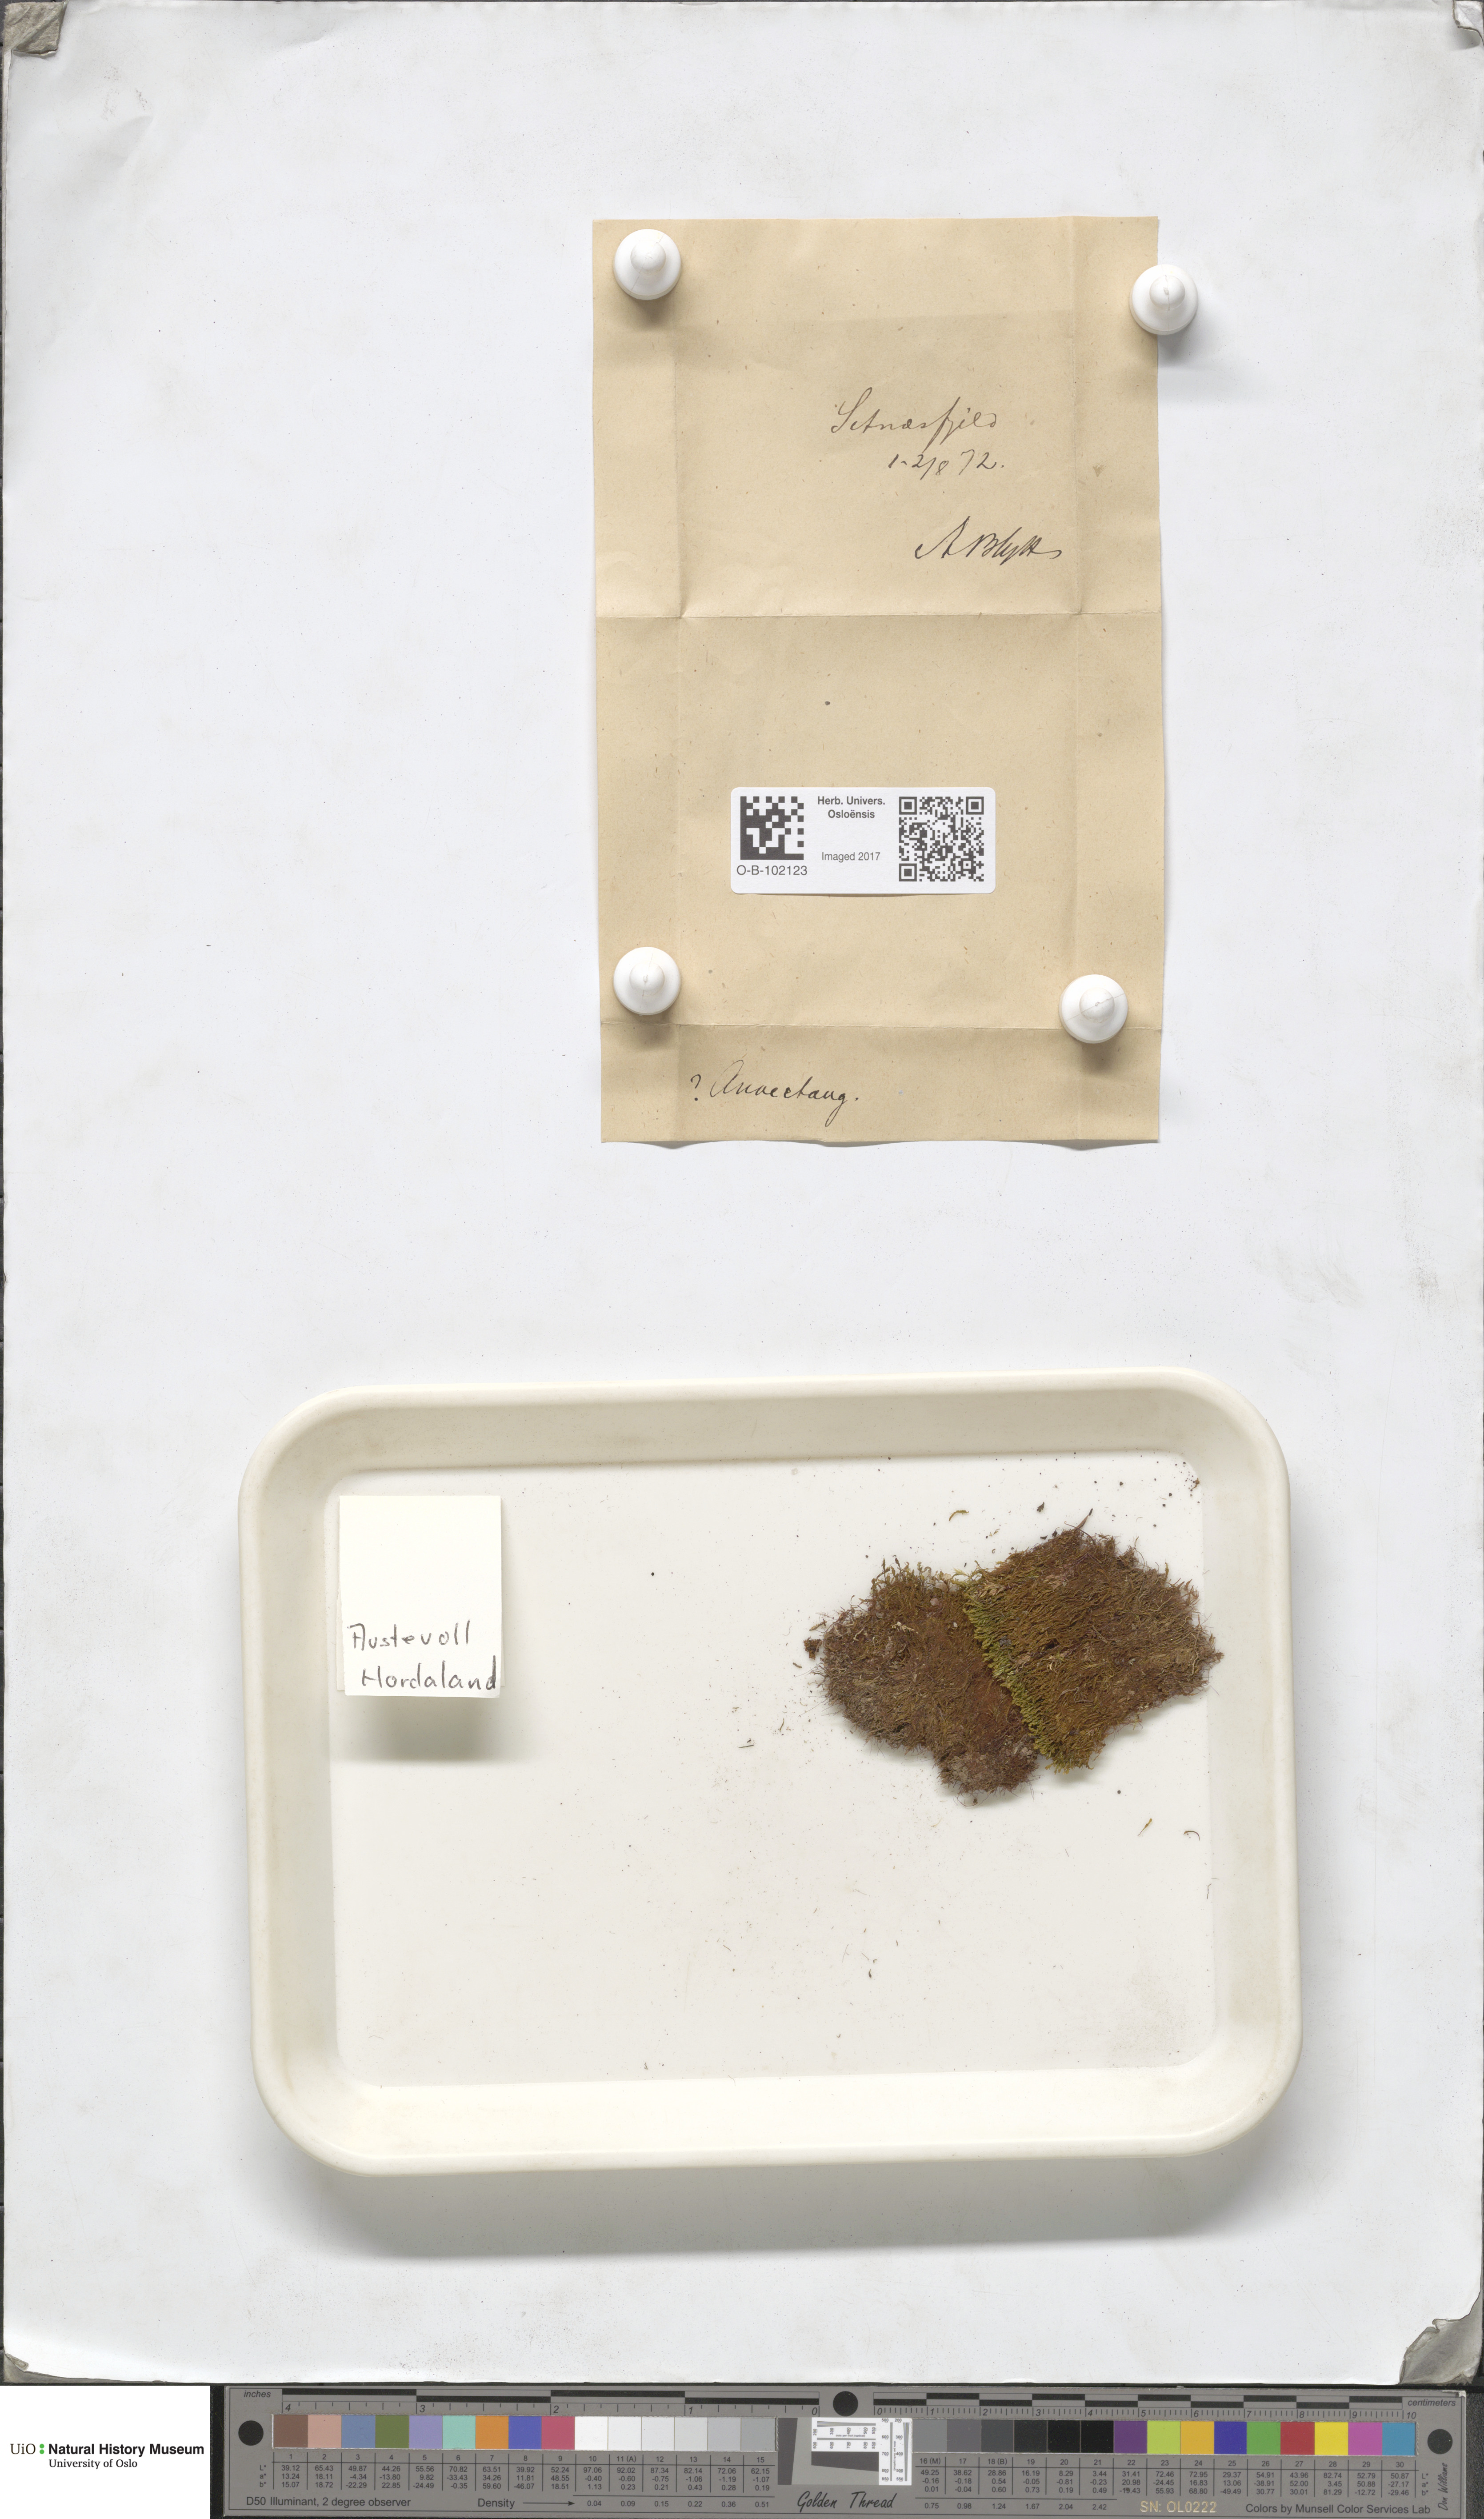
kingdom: Plantae
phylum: Bryophyta
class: Bryopsida
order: Pottiales
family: Pottiaceae
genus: Anoectangium
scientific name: Anoectangium aestivum
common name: Summer-moss
